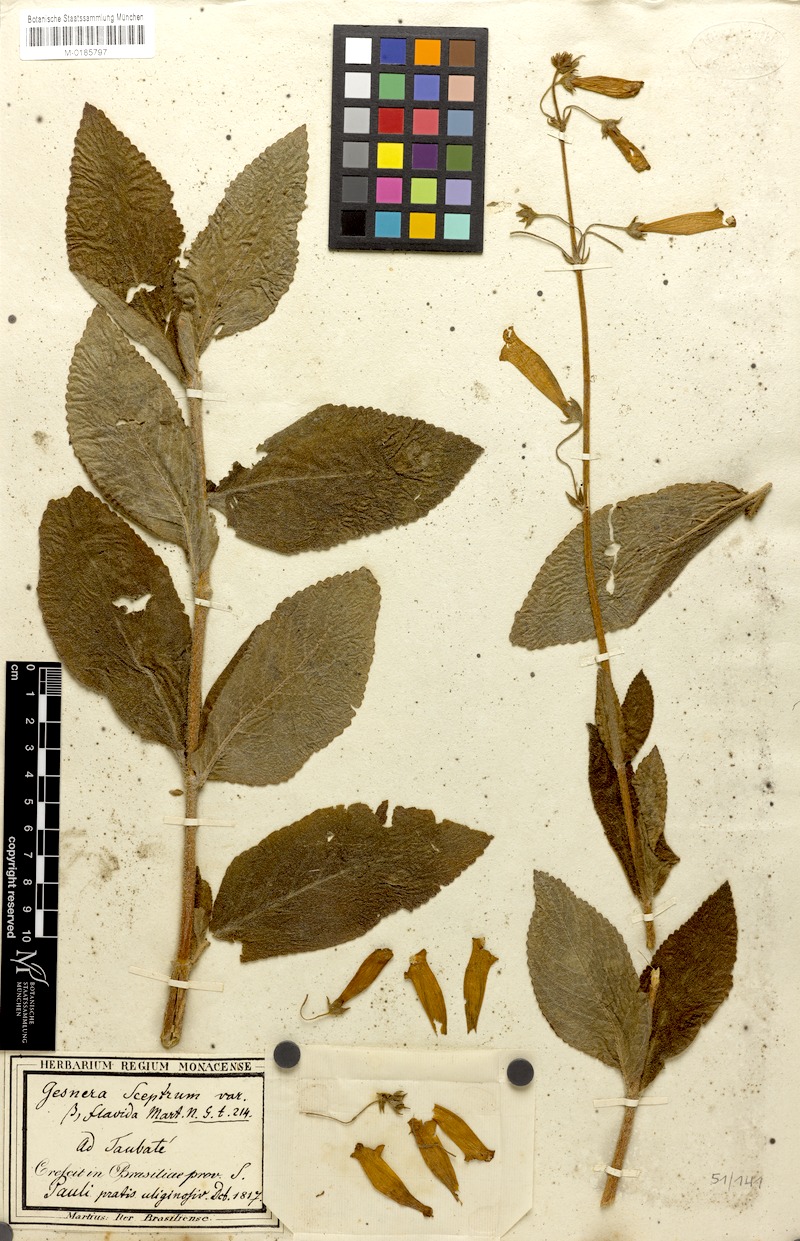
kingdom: Plantae
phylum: Tracheophyta
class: Magnoliopsida
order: Lamiales
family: Gesneriaceae
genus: Sinningia
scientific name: Sinningia sceptrum
